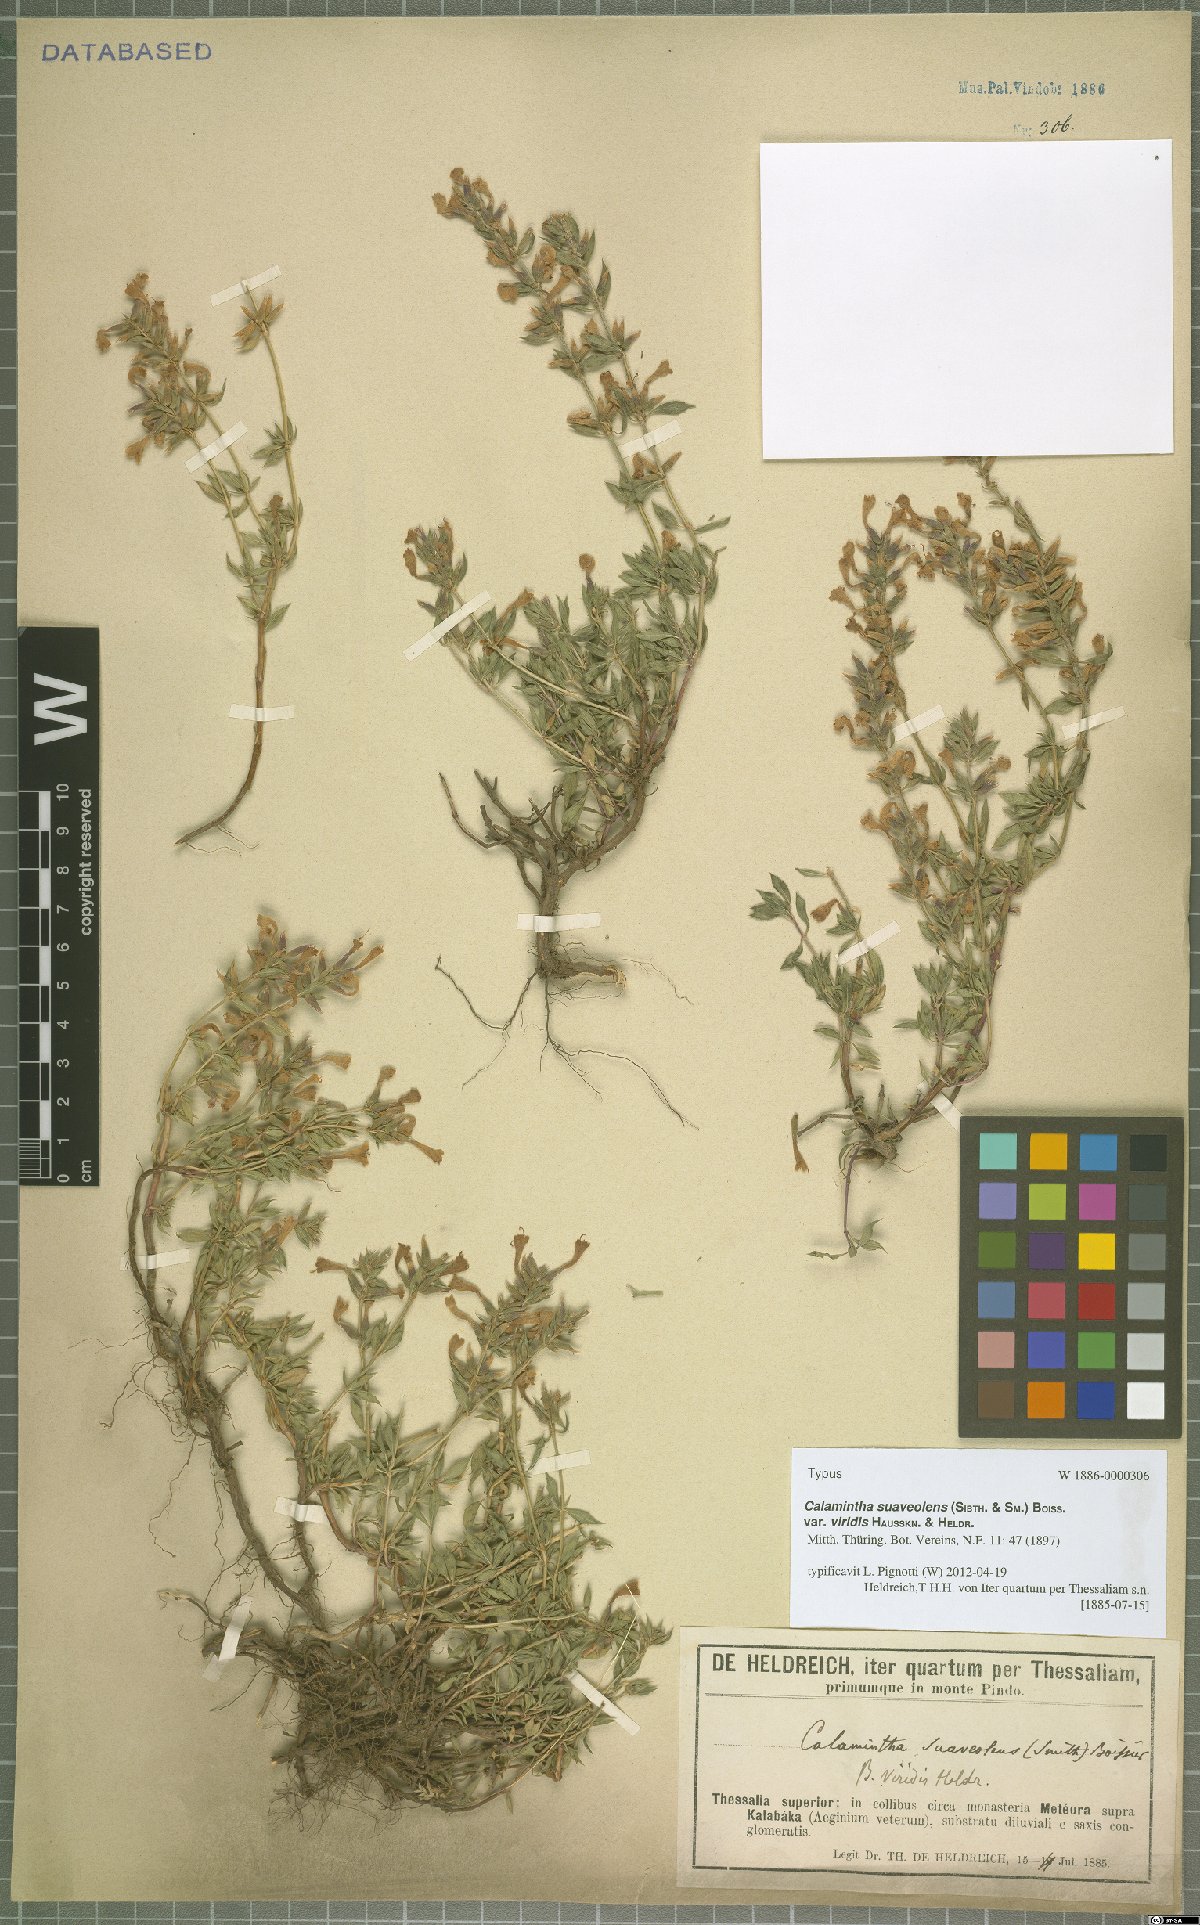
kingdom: Plantae
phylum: Tracheophyta
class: Magnoliopsida
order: Lamiales
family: Lamiaceae
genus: Clinopodium
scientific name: Clinopodium suaveolens
